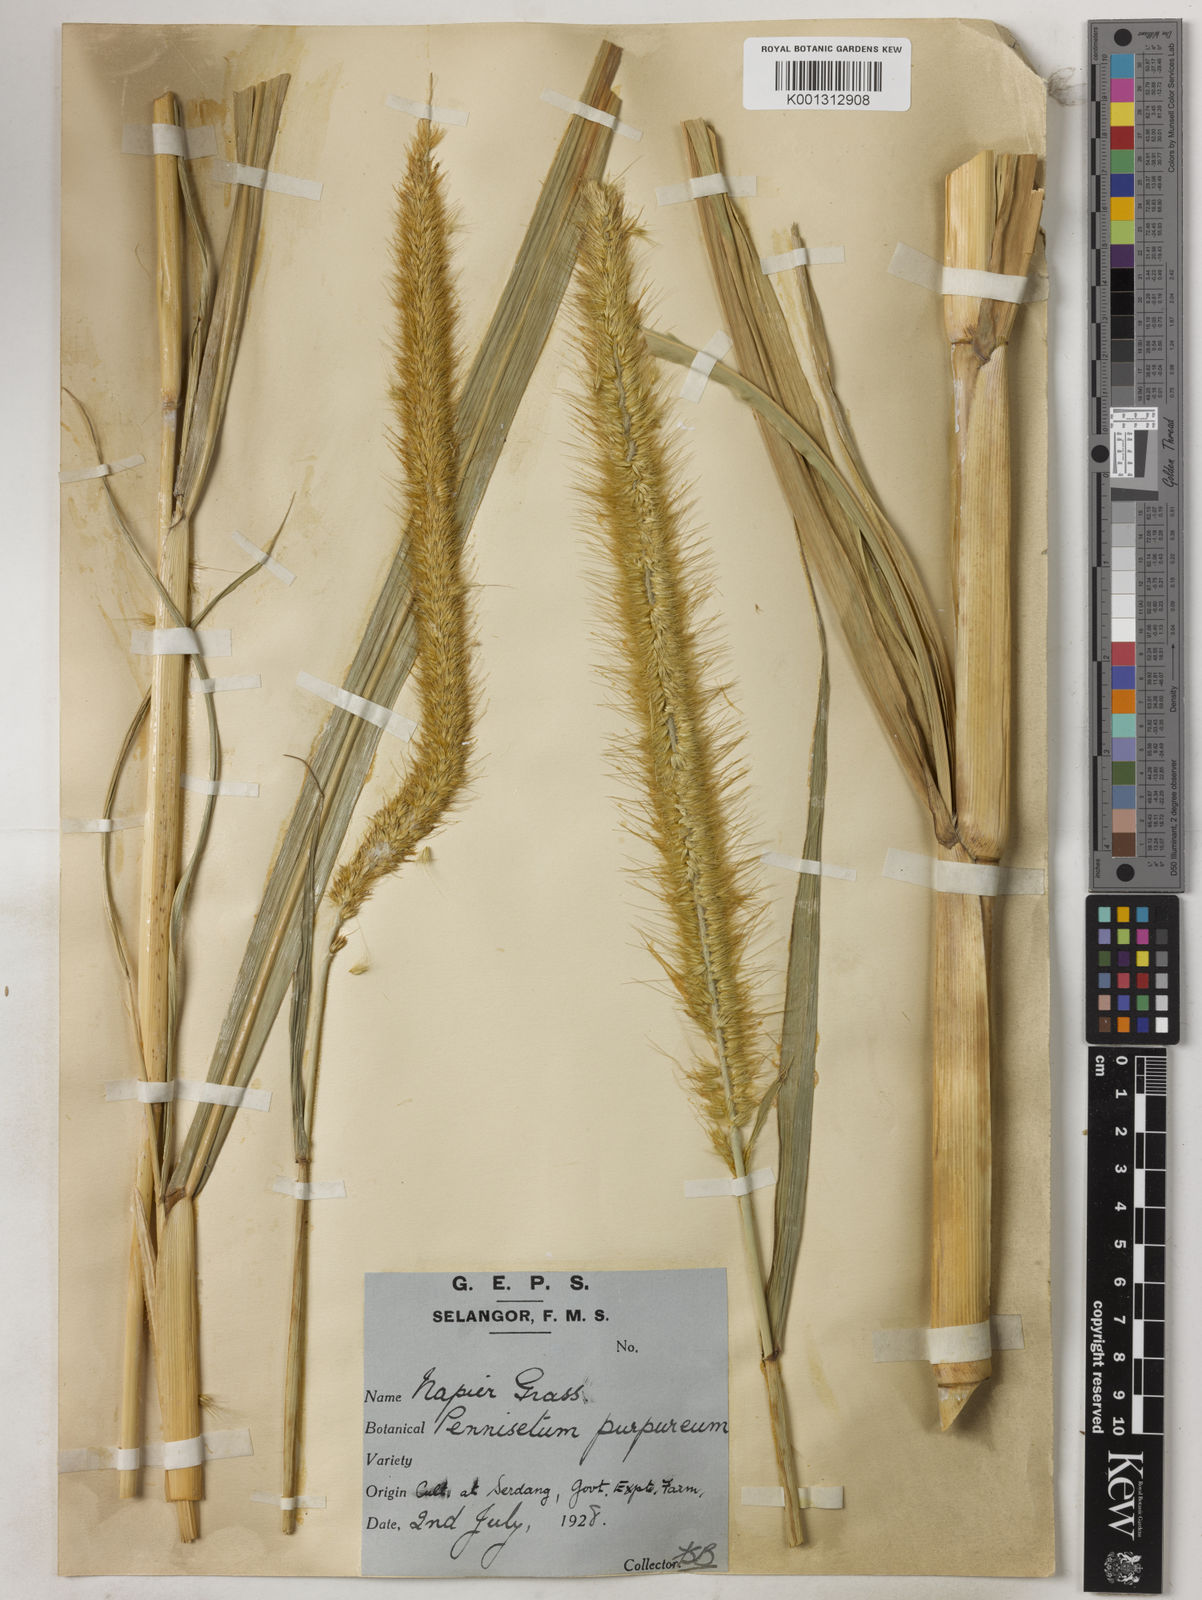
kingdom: Plantae
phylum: Tracheophyta
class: Liliopsida
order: Poales
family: Poaceae
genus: Cenchrus
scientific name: Cenchrus purpureus
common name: Elephant grass
